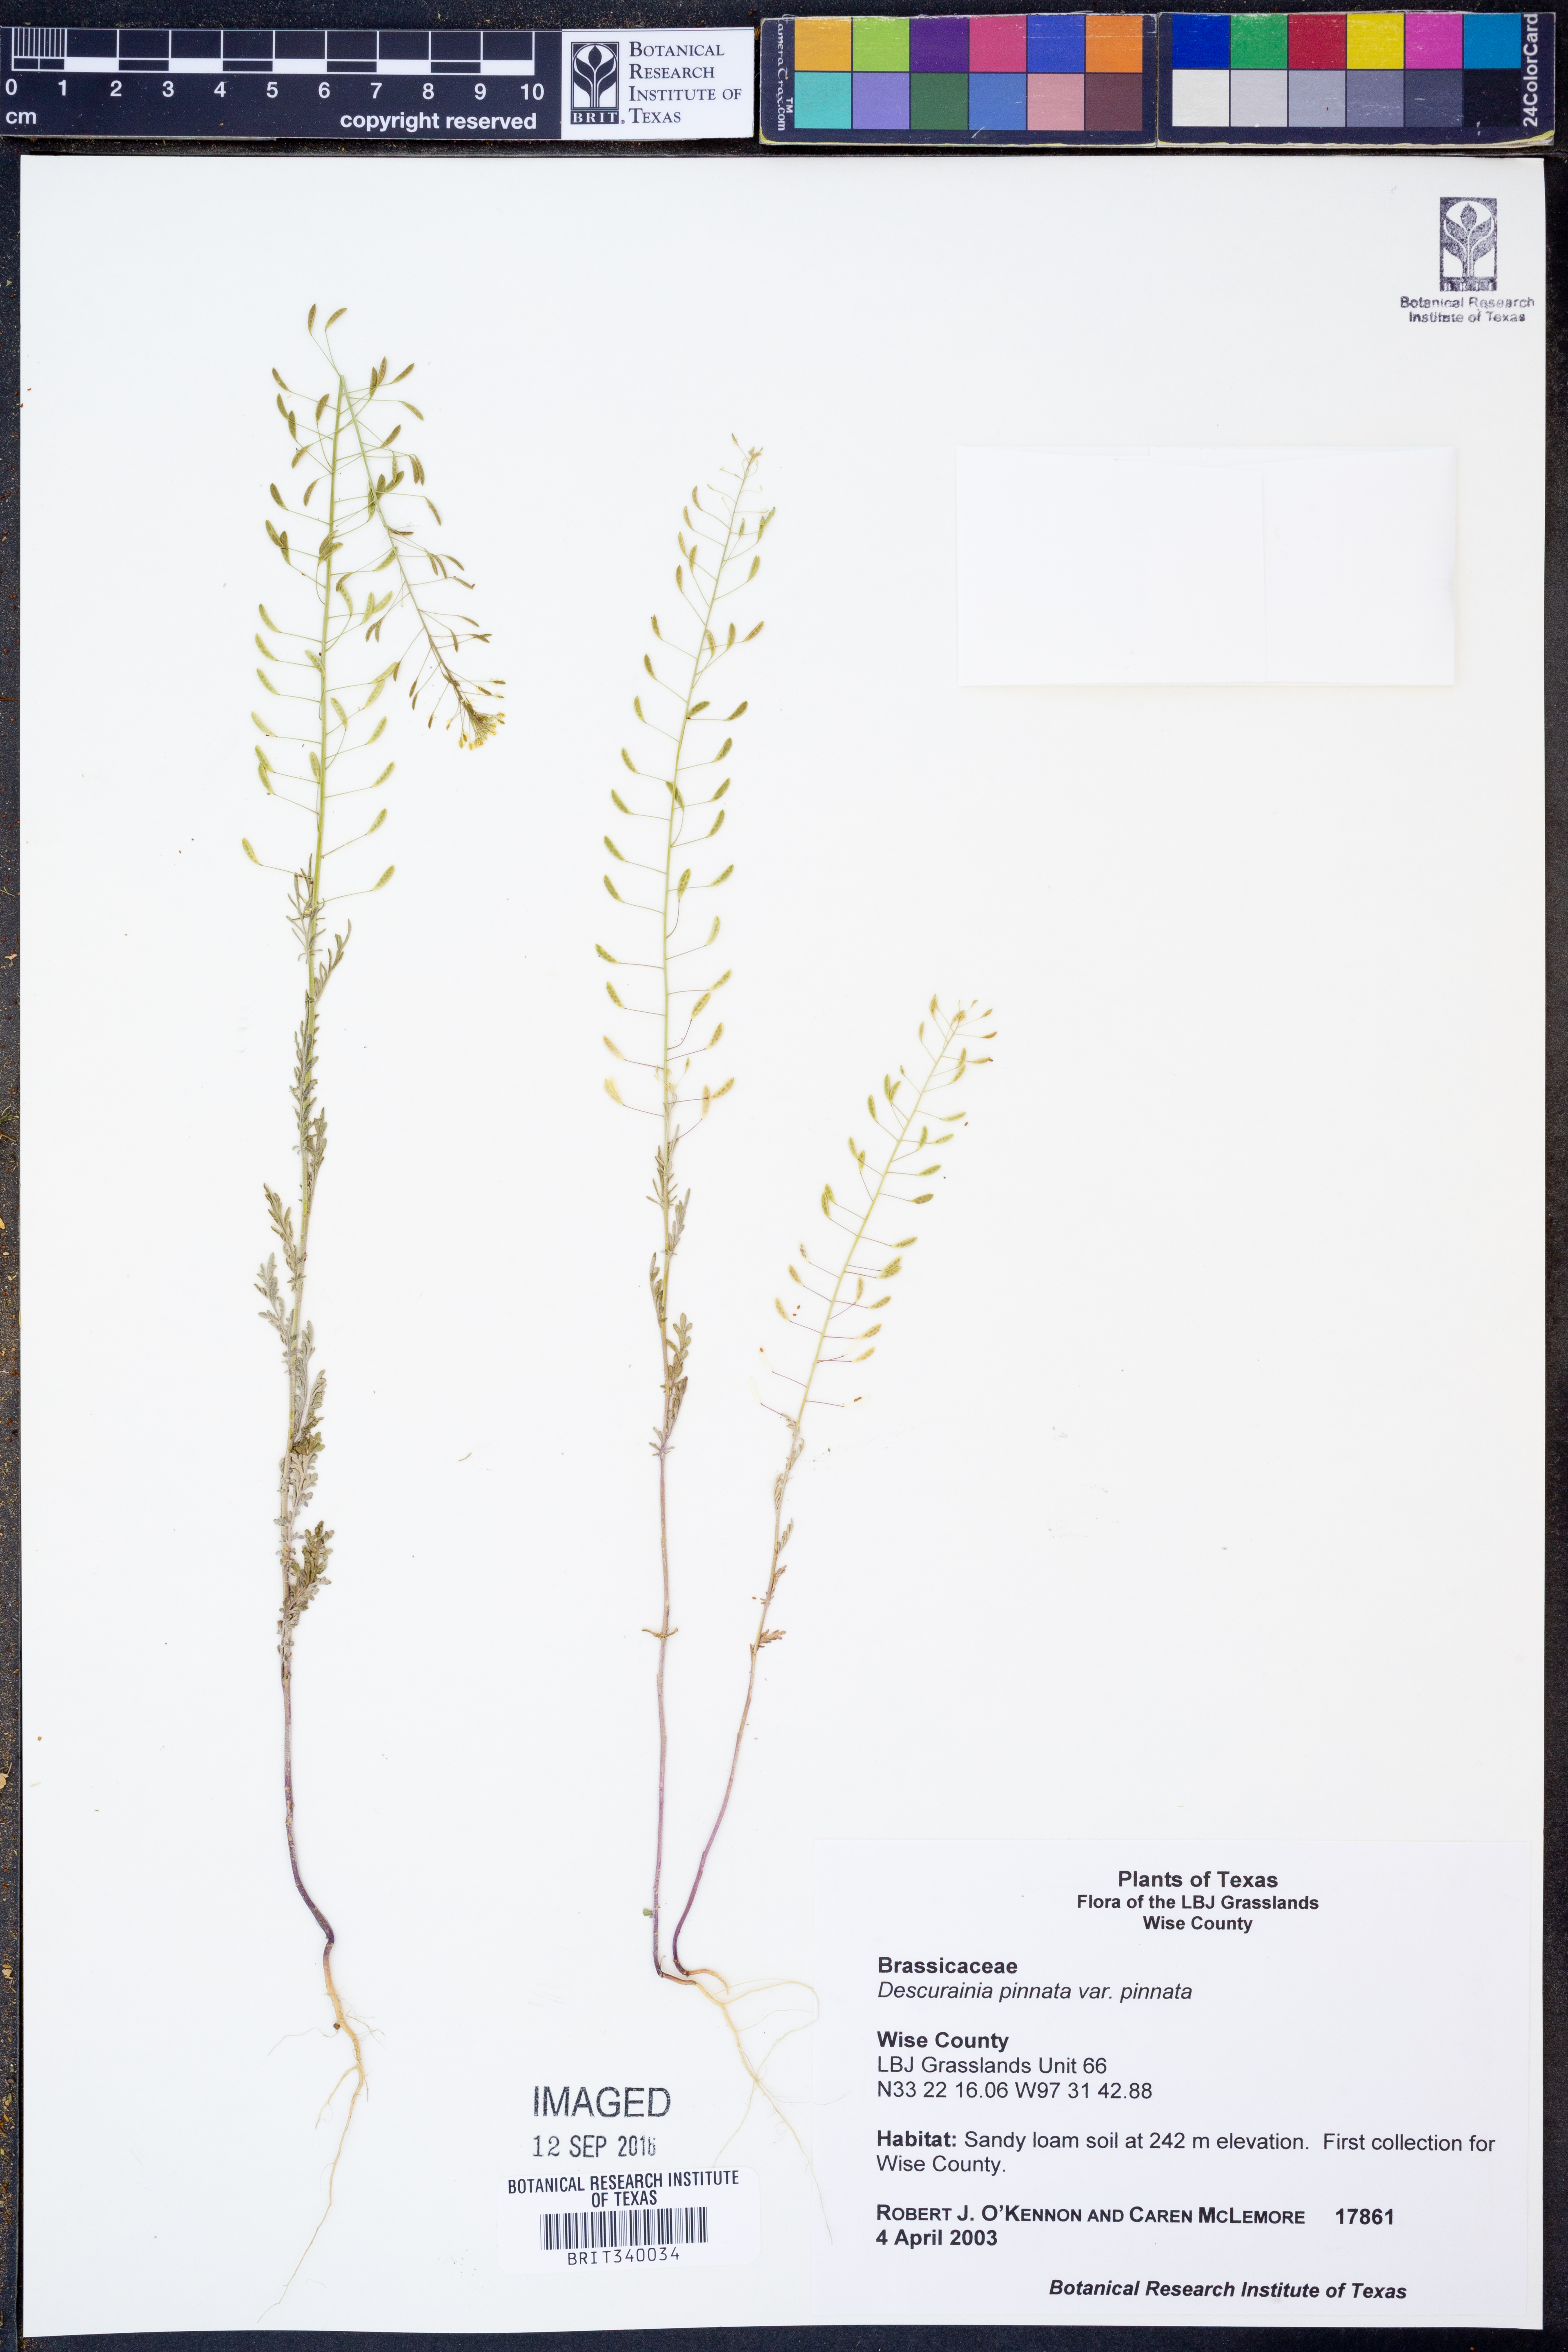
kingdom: Plantae
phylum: Tracheophyta
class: Magnoliopsida
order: Brassicales
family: Brassicaceae
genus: Descurainia
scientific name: Descurainia pinnata
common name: Western tansy mustard
